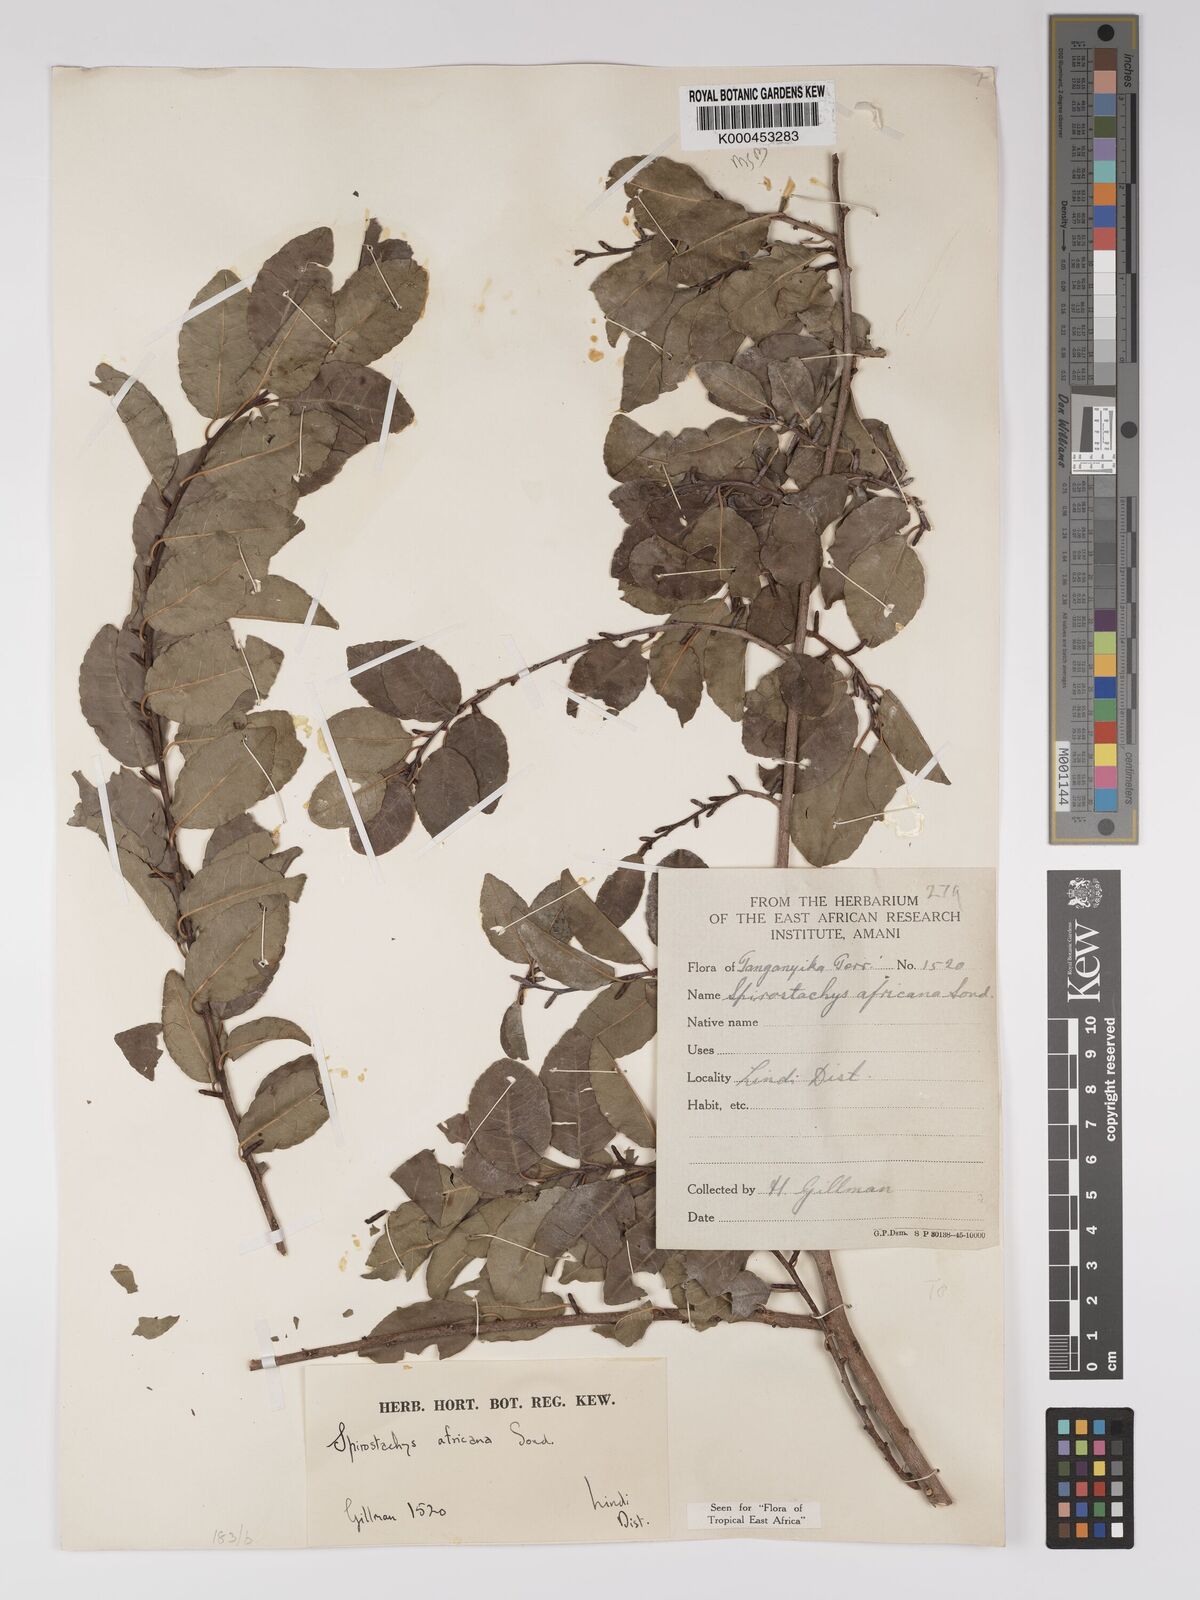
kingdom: Plantae
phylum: Tracheophyta
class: Magnoliopsida
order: Malpighiales
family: Euphorbiaceae
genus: Spirostachys
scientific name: Spirostachys africana
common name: Tamboti
